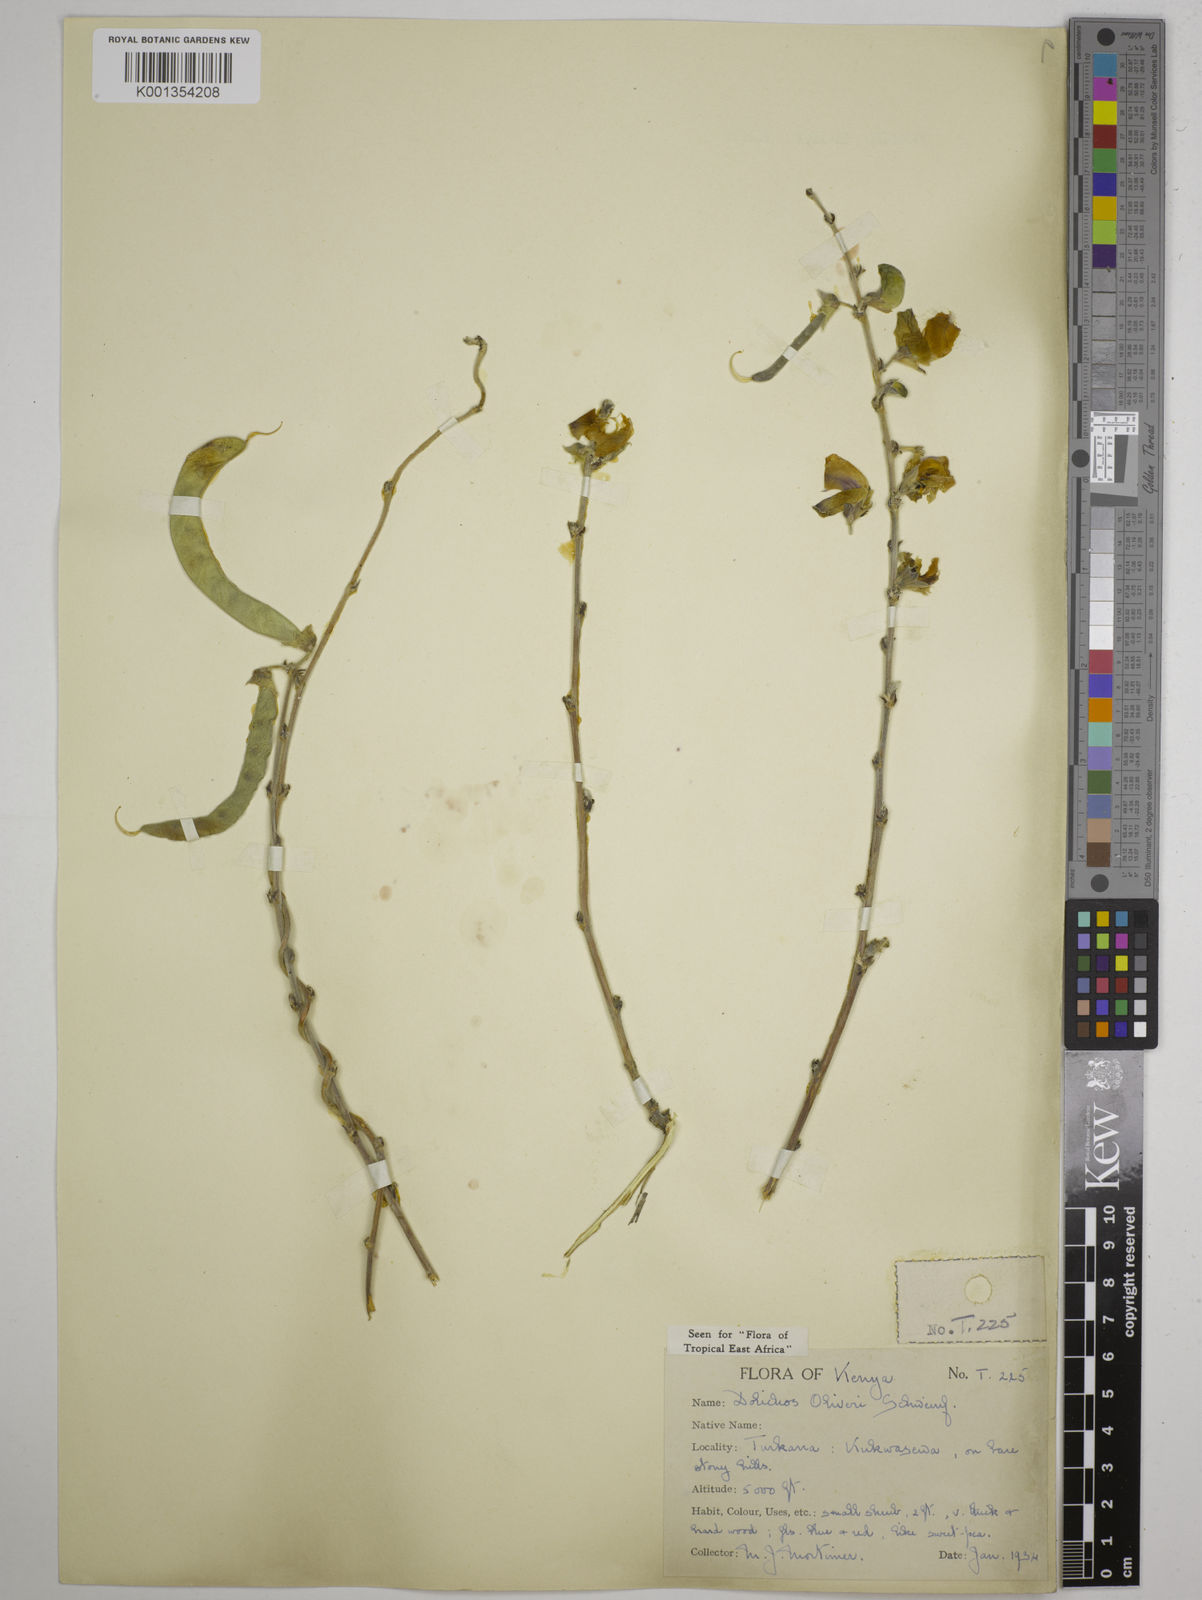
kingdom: Plantae
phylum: Tracheophyta
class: Magnoliopsida
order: Fabales
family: Fabaceae
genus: Dolichos
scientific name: Dolichos
